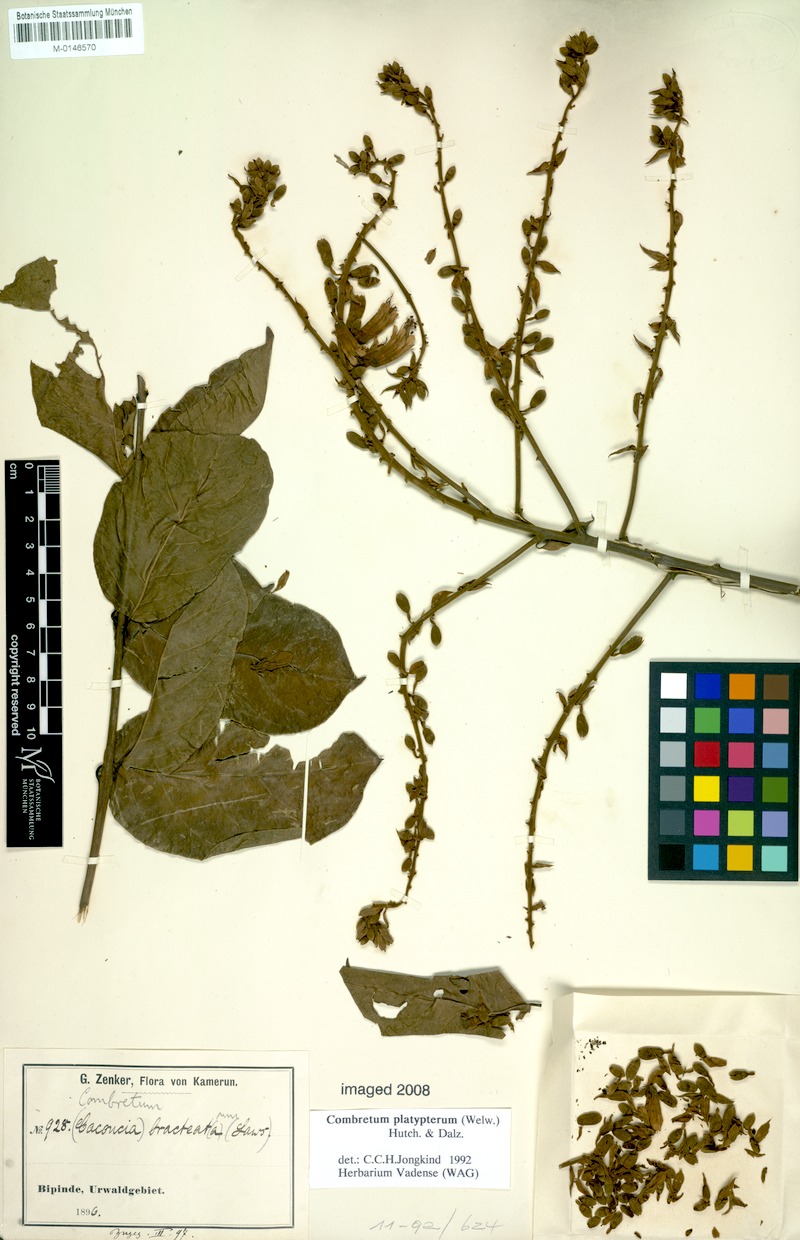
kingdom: Plantae
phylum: Tracheophyta
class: Magnoliopsida
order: Myrtales
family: Combretaceae
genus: Combretum
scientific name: Combretum platypterum
